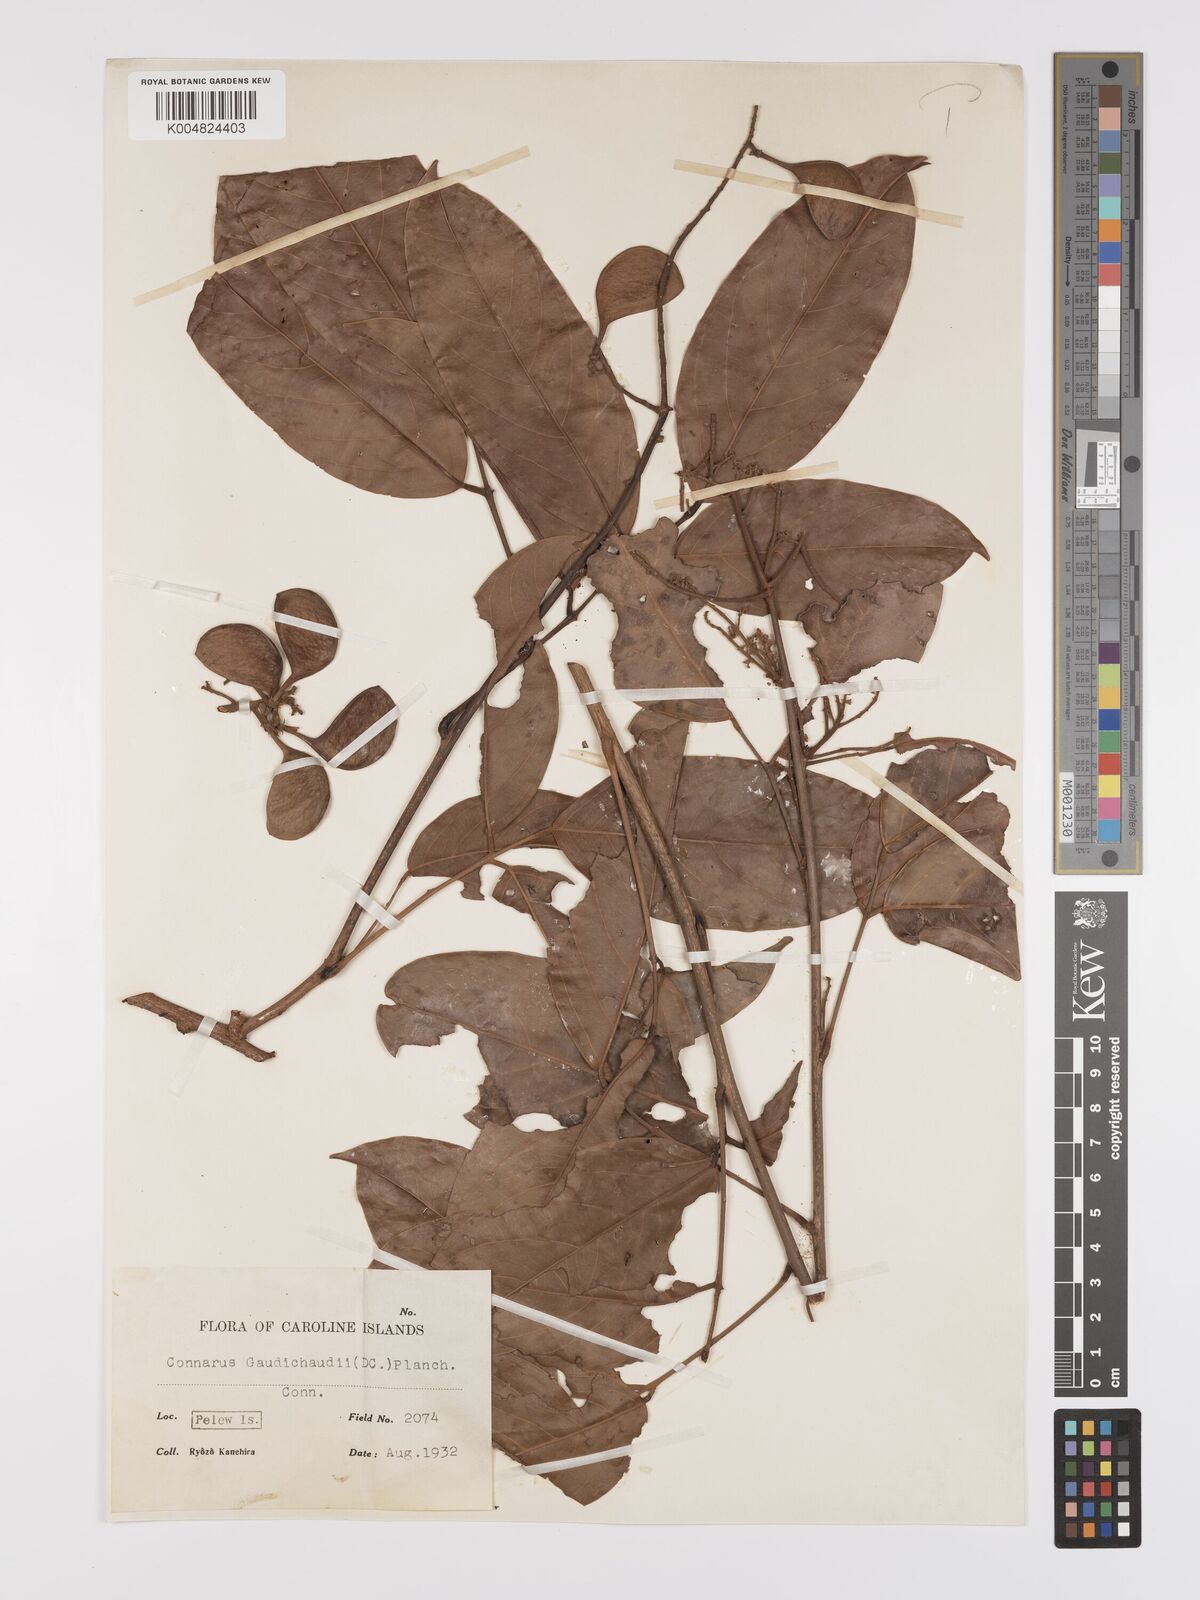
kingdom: Plantae
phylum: Tracheophyta
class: Magnoliopsida
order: Oxalidales
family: Connaraceae
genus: Connarus
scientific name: Connarus semidecandrus
